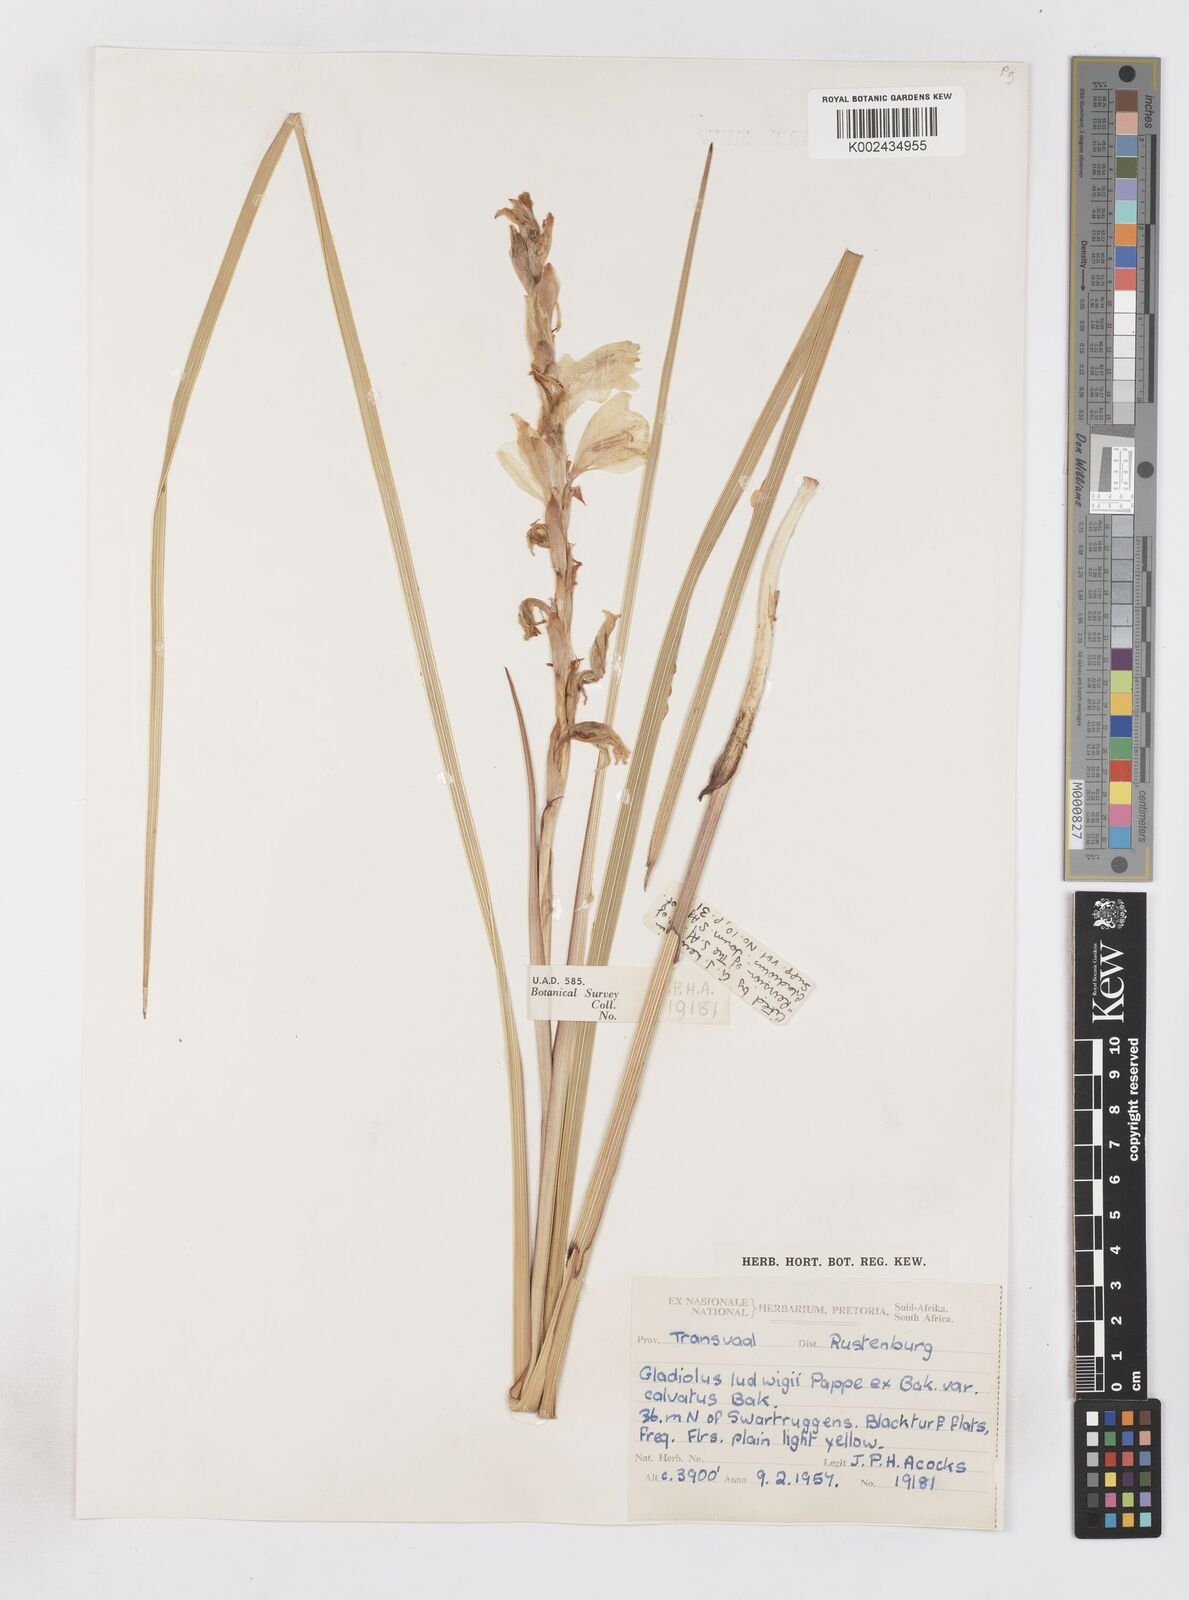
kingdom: Plantae
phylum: Tracheophyta
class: Liliopsida
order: Asparagales
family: Iridaceae
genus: Gladiolus
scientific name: Gladiolus sericeovillosus
